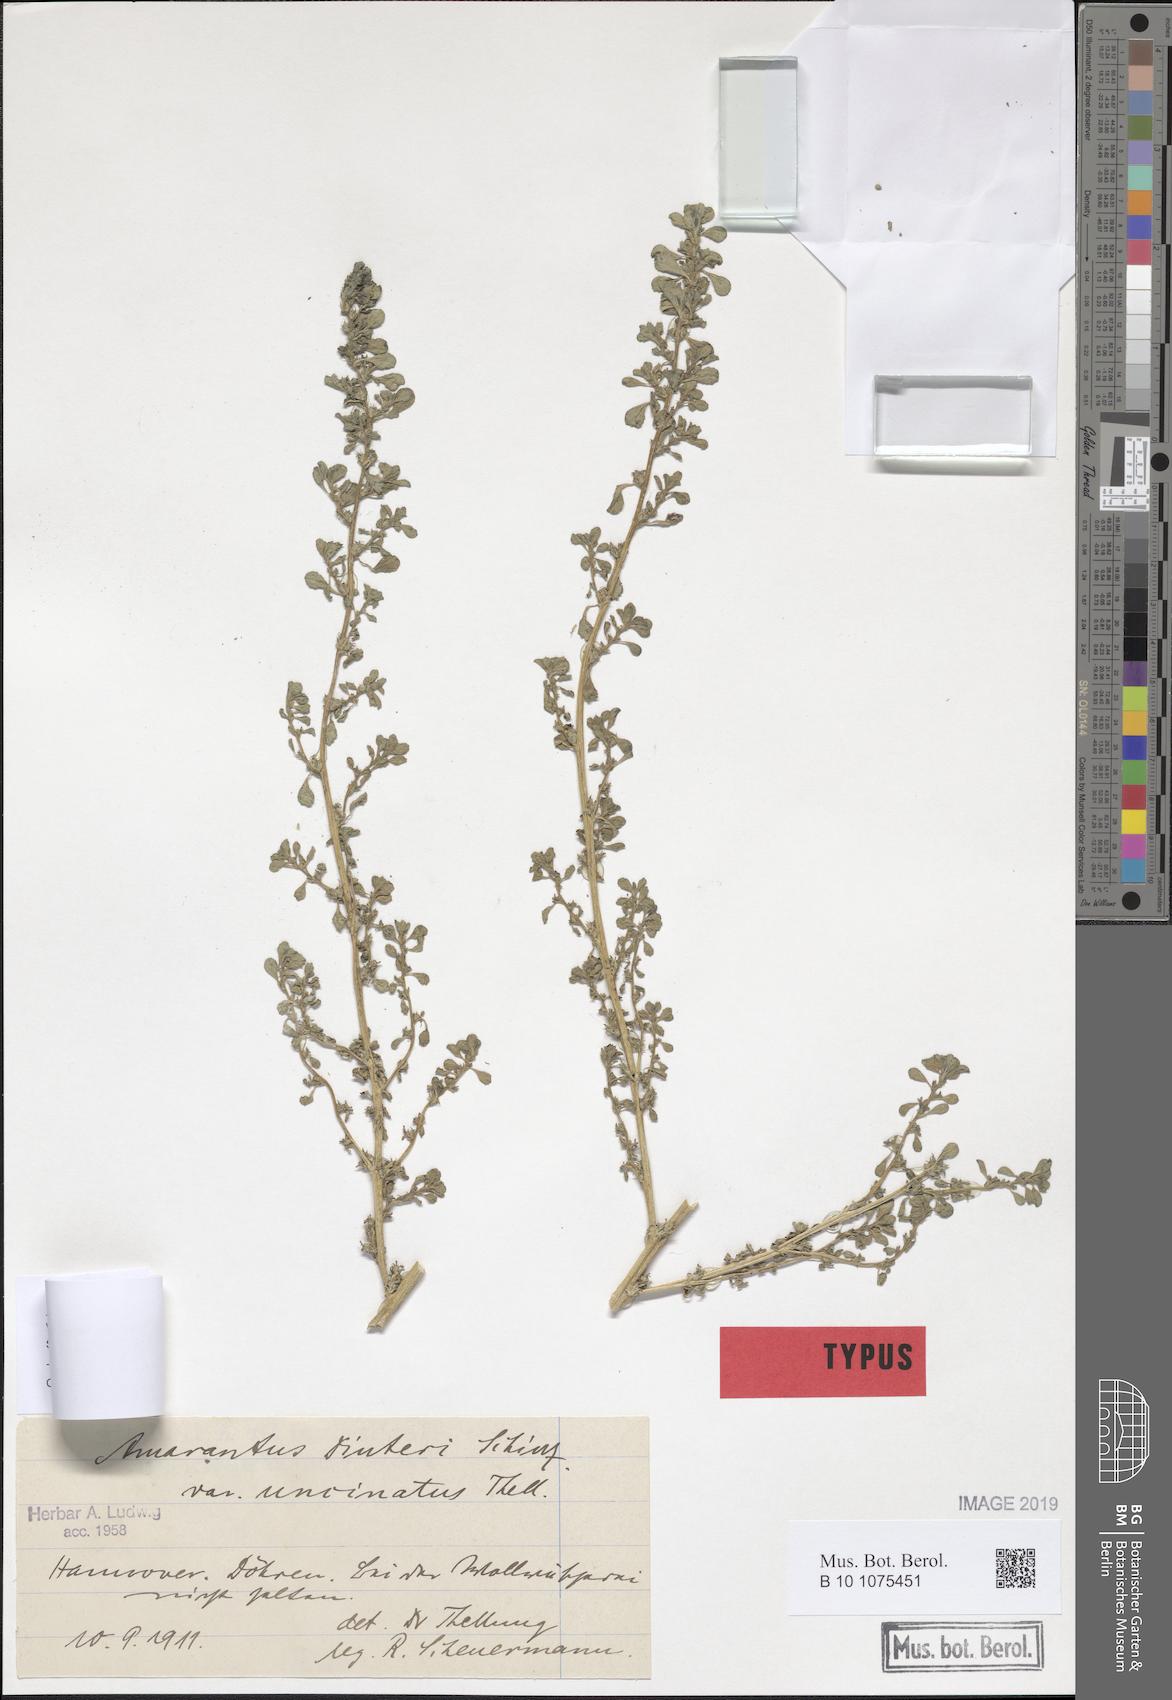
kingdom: Plantae
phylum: Tracheophyta
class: Magnoliopsida
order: Caryophyllales
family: Amaranthaceae
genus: Amaranthus
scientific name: Amaranthus capensis
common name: Cape pigweed
